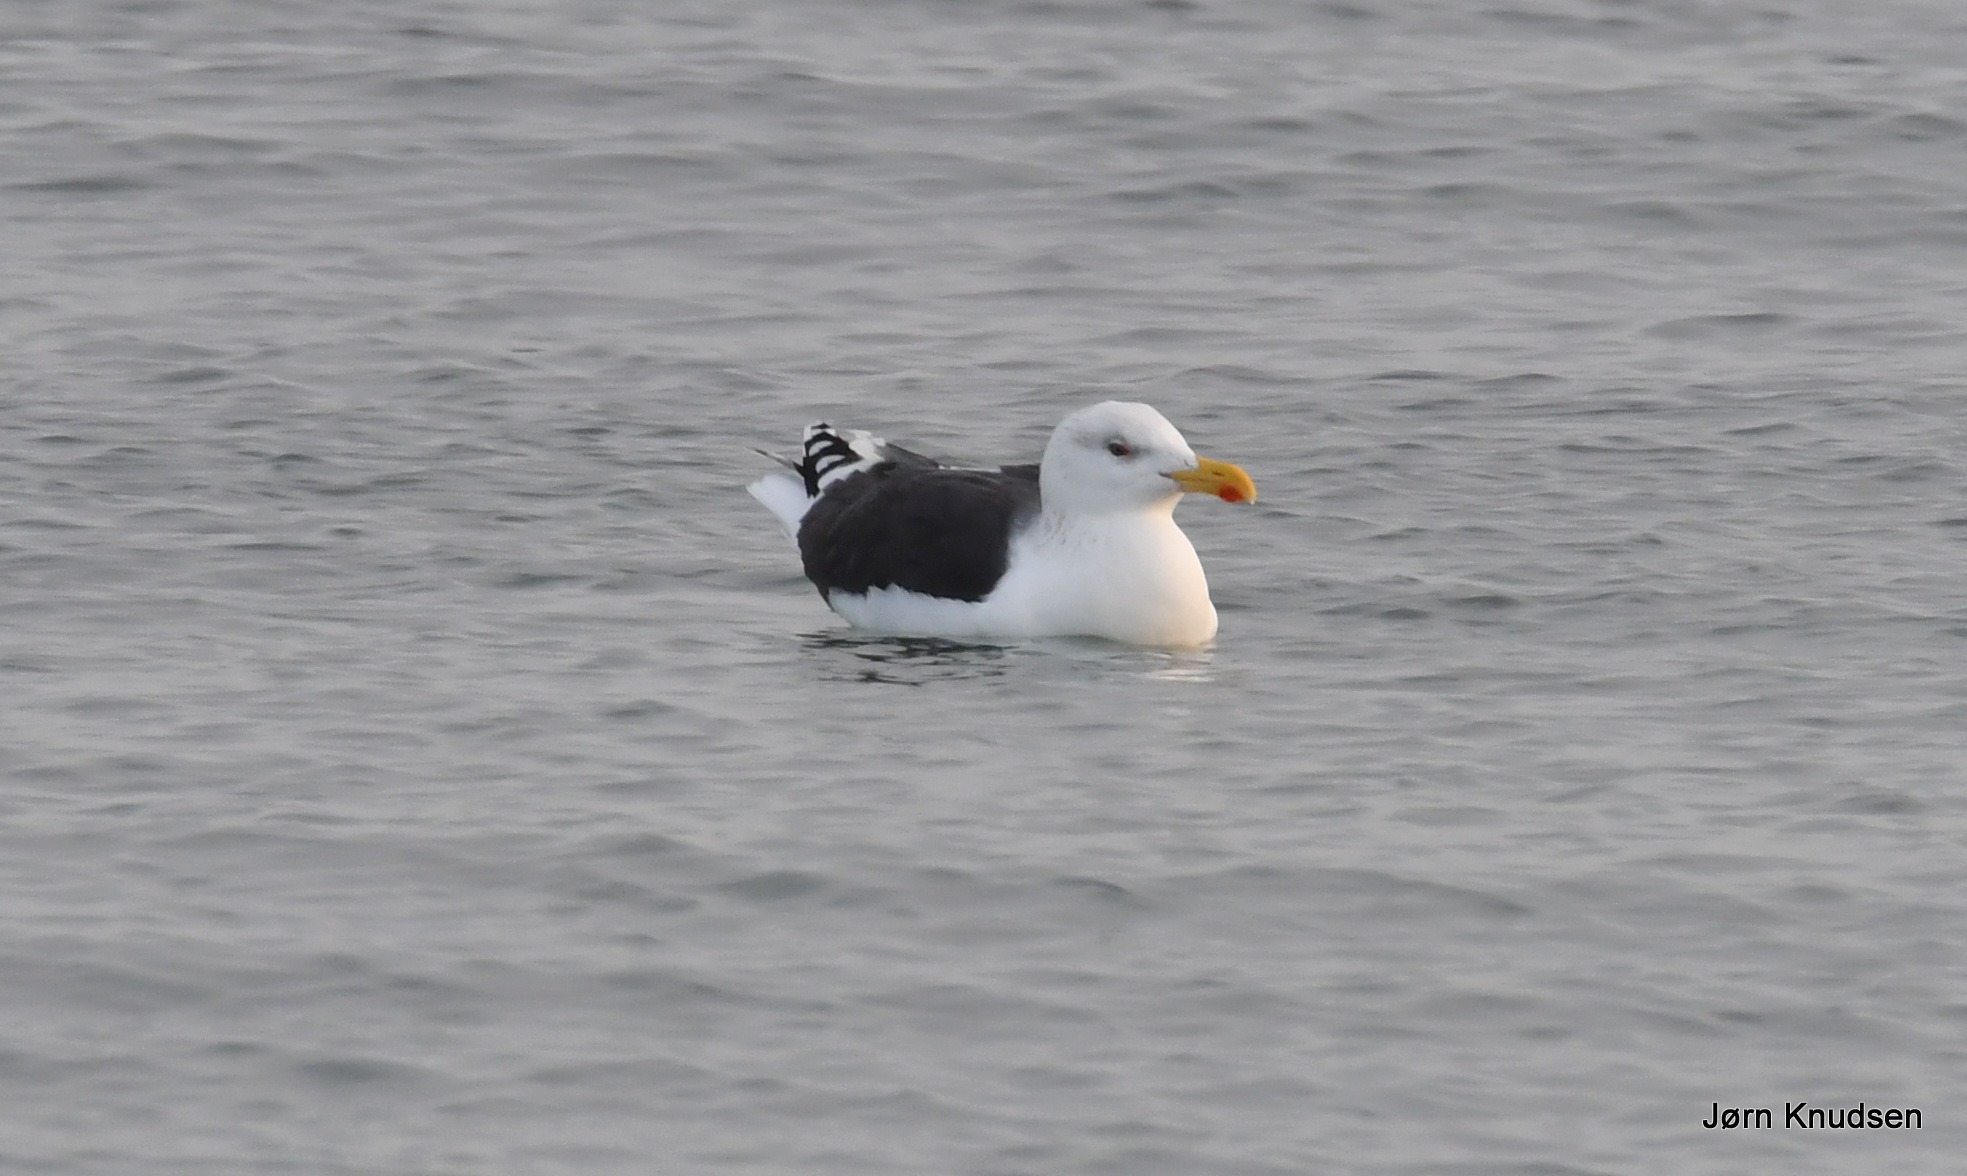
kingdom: Animalia
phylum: Chordata
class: Aves
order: Charadriiformes
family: Laridae
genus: Larus
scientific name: Larus marinus
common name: Svartbag
